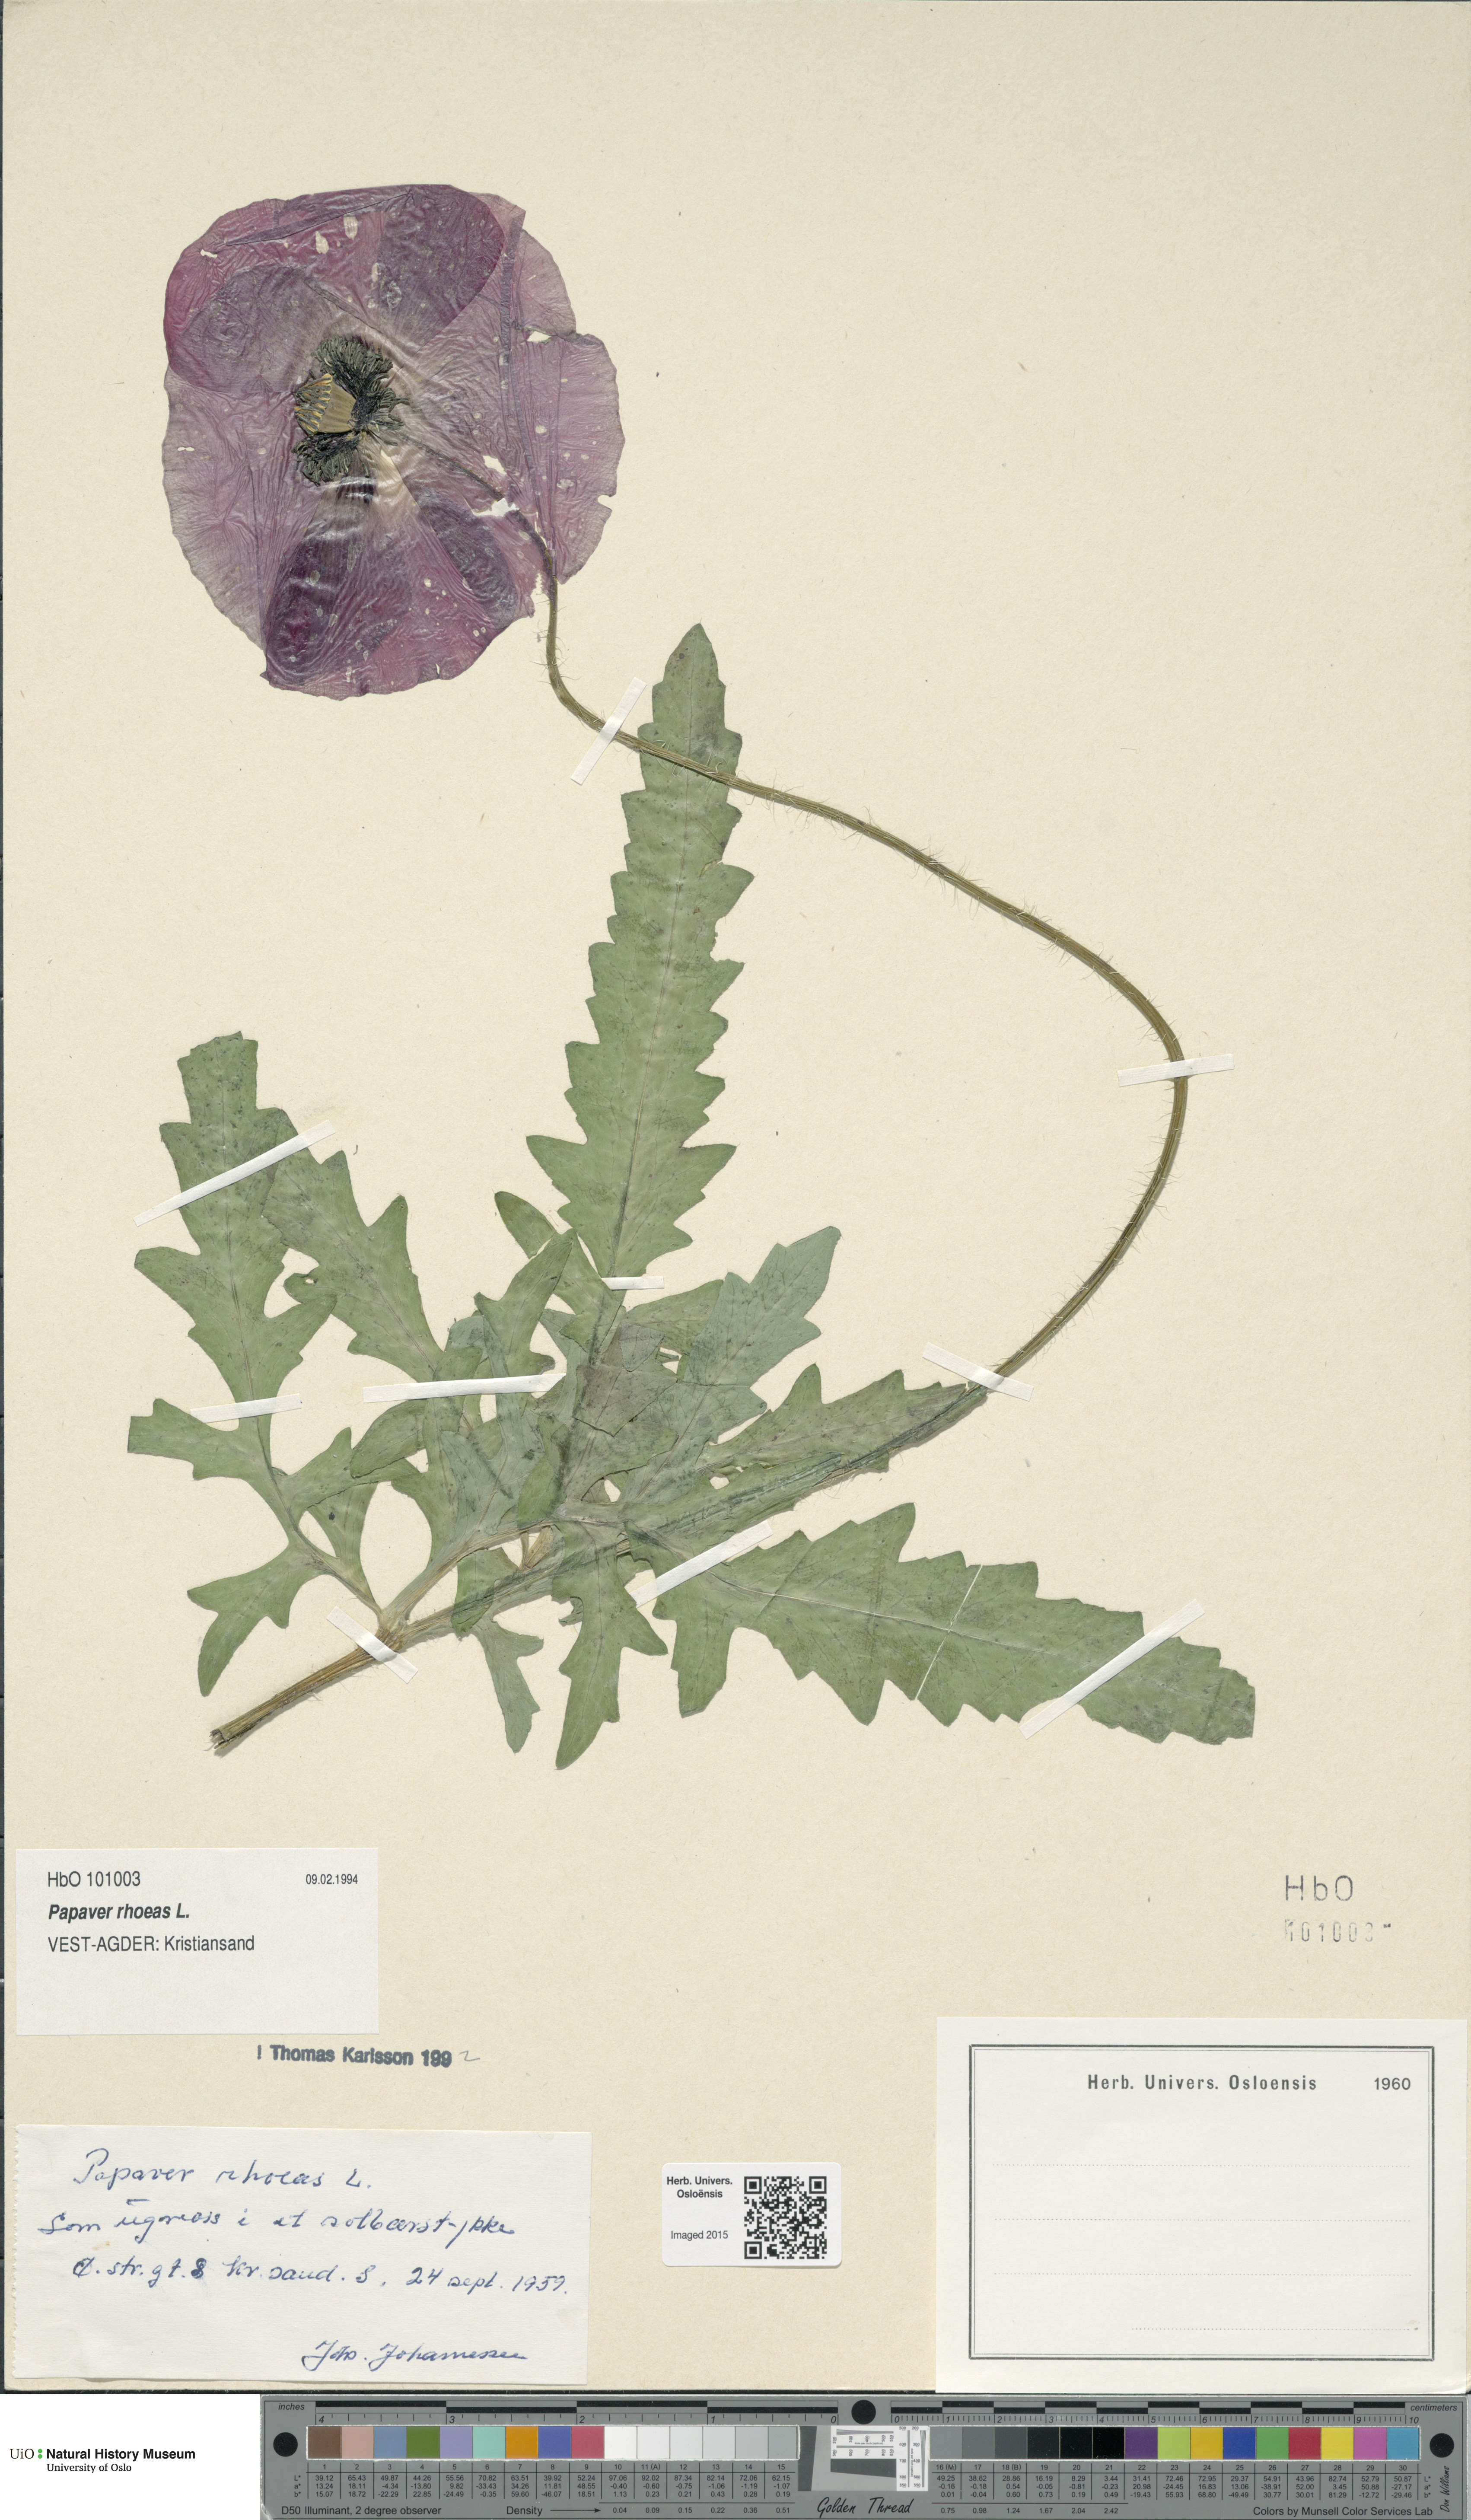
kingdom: Plantae
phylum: Tracheophyta
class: Magnoliopsida
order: Ranunculales
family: Papaveraceae
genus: Papaver
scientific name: Papaver rhoeas
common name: Corn poppy
